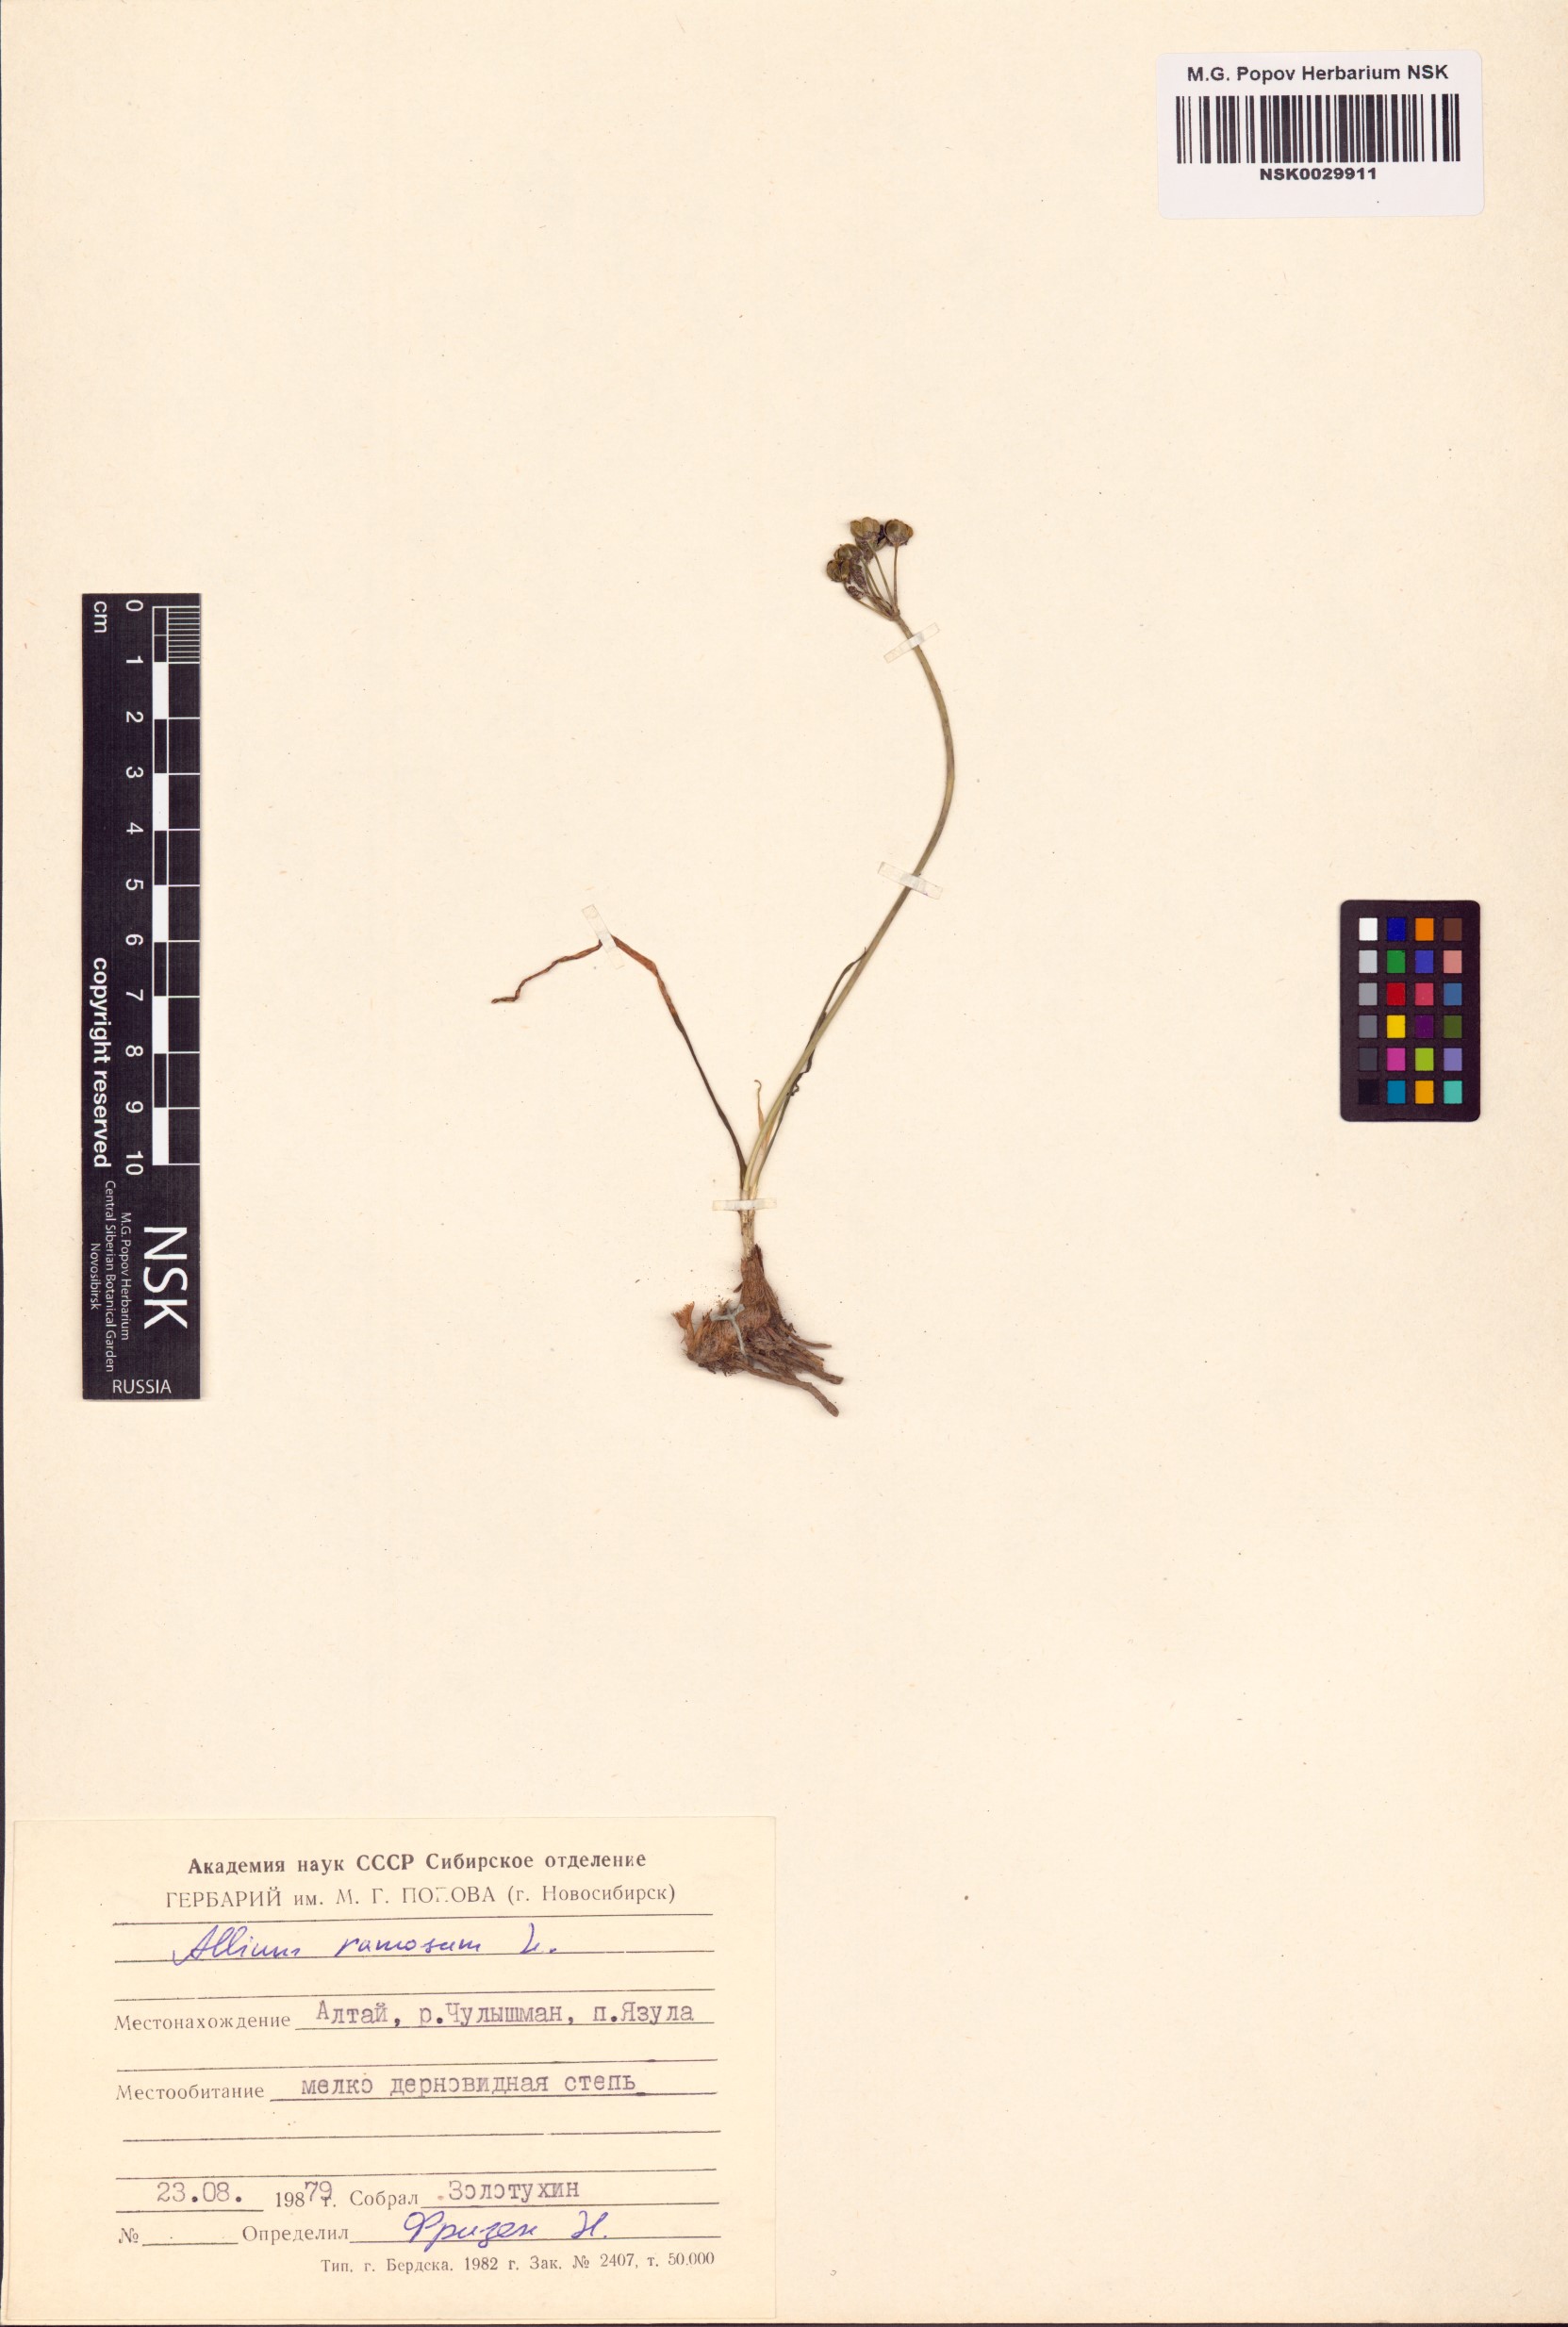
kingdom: Plantae
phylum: Tracheophyta
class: Liliopsida
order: Asparagales
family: Amaryllidaceae
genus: Allium
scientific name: Allium ramosum
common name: Fragrant garlic
